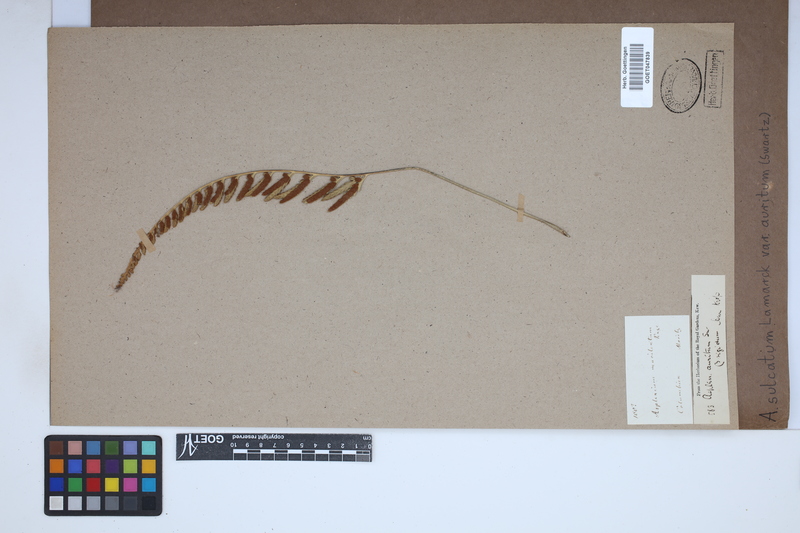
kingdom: Plantae
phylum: Tracheophyta
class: Polypodiopsida
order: Polypodiales
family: Aspleniaceae
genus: Asplenium
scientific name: Asplenium auritum
